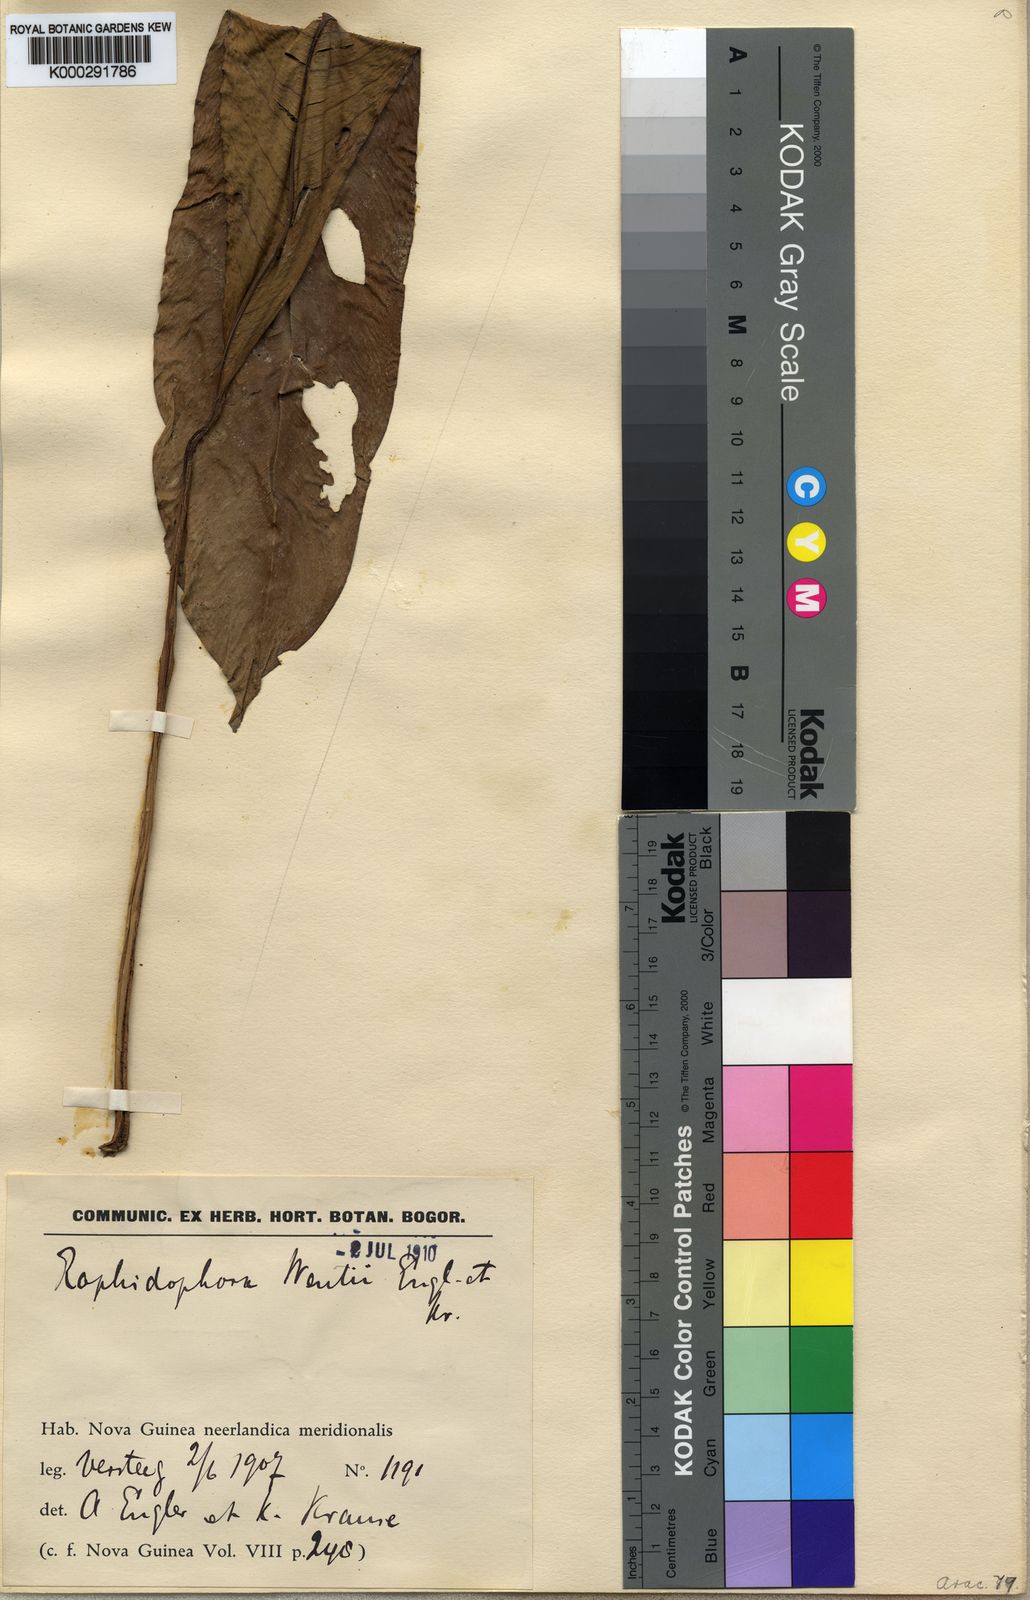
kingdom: Plantae
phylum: Tracheophyta
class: Liliopsida
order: Alismatales
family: Araceae
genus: Rhaphidophora
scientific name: Rhaphidophora geniculata
